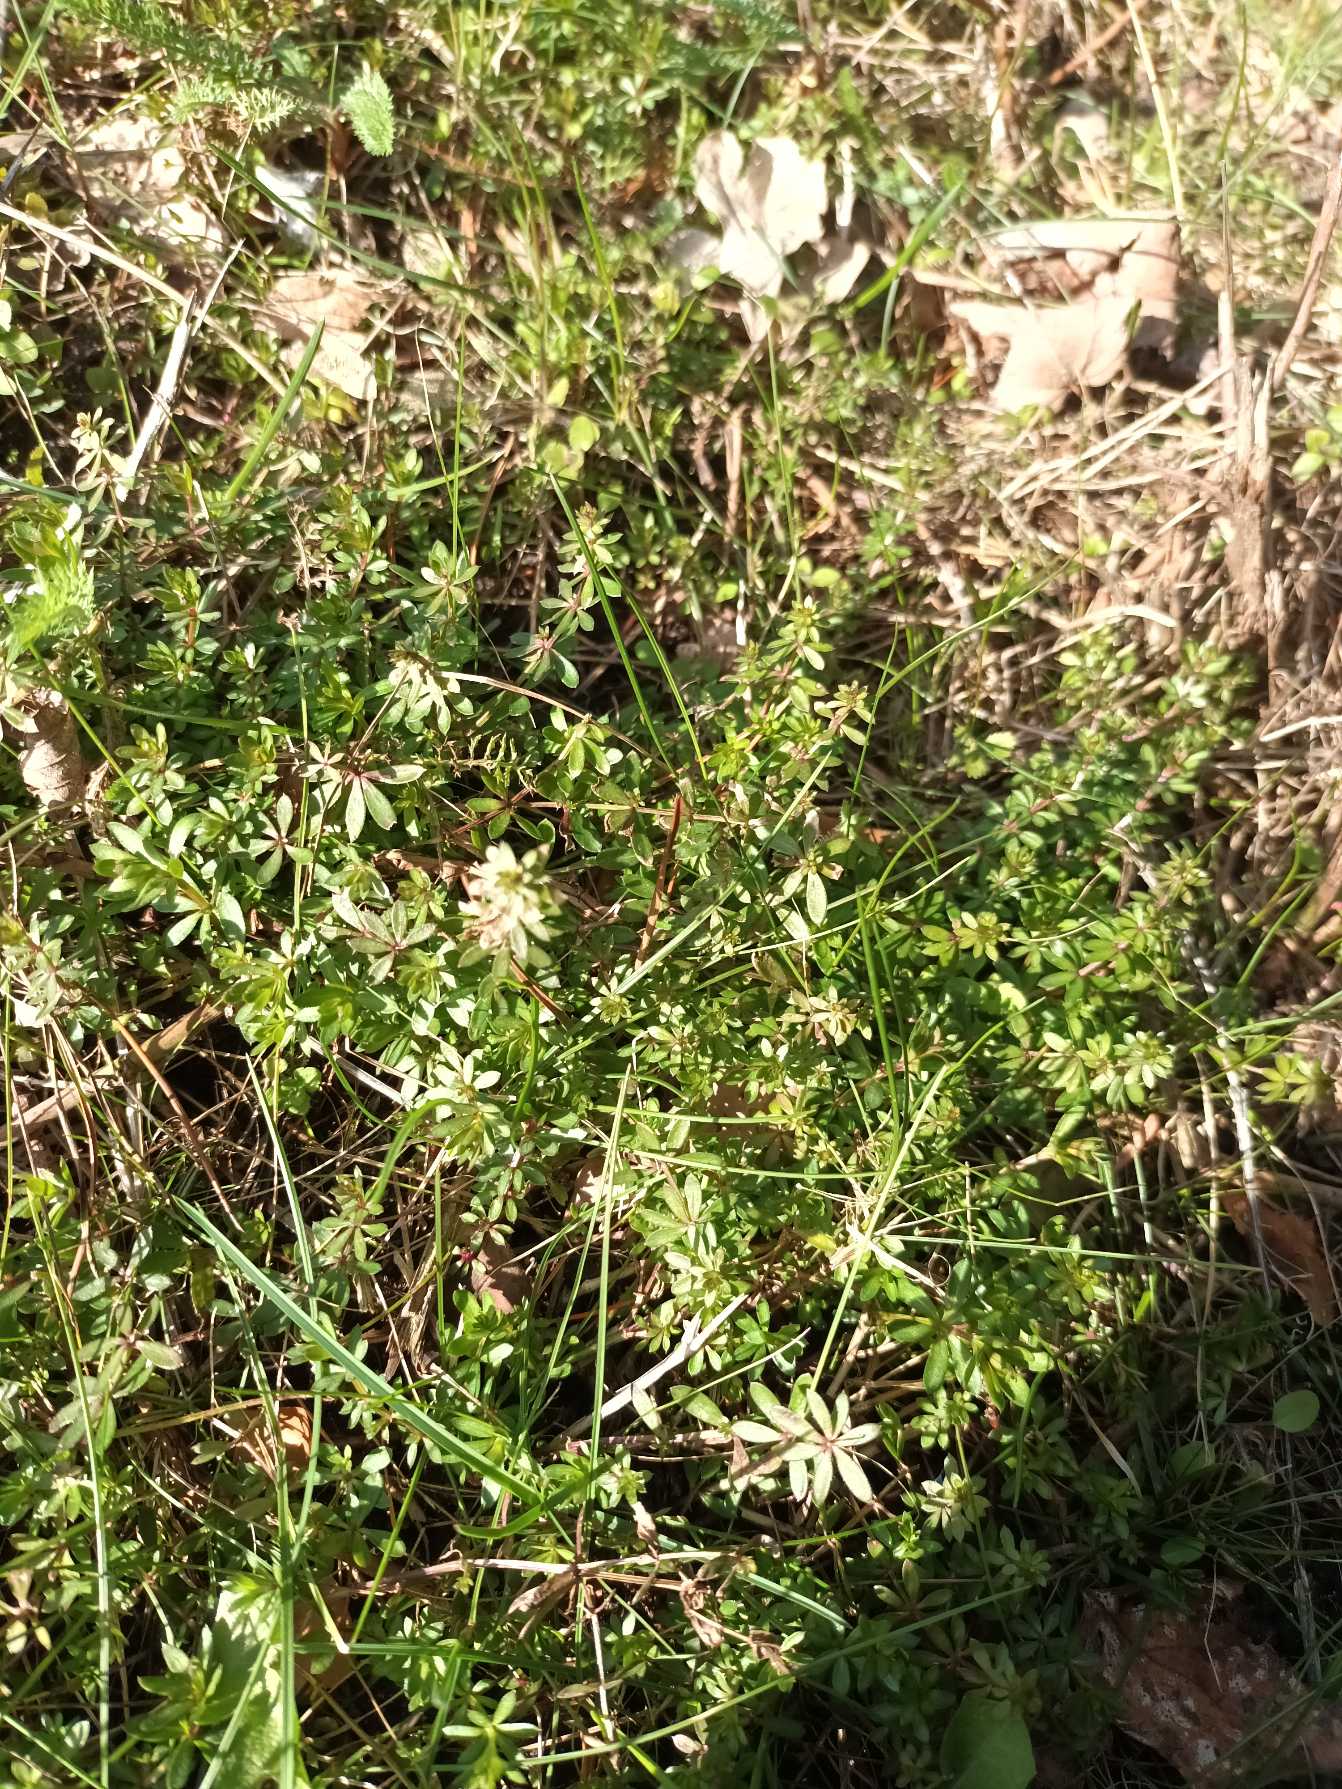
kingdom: Plantae
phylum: Tracheophyta
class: Magnoliopsida
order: Gentianales
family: Rubiaceae
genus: Galium
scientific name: Galium mollugo
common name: Hvid snerre
